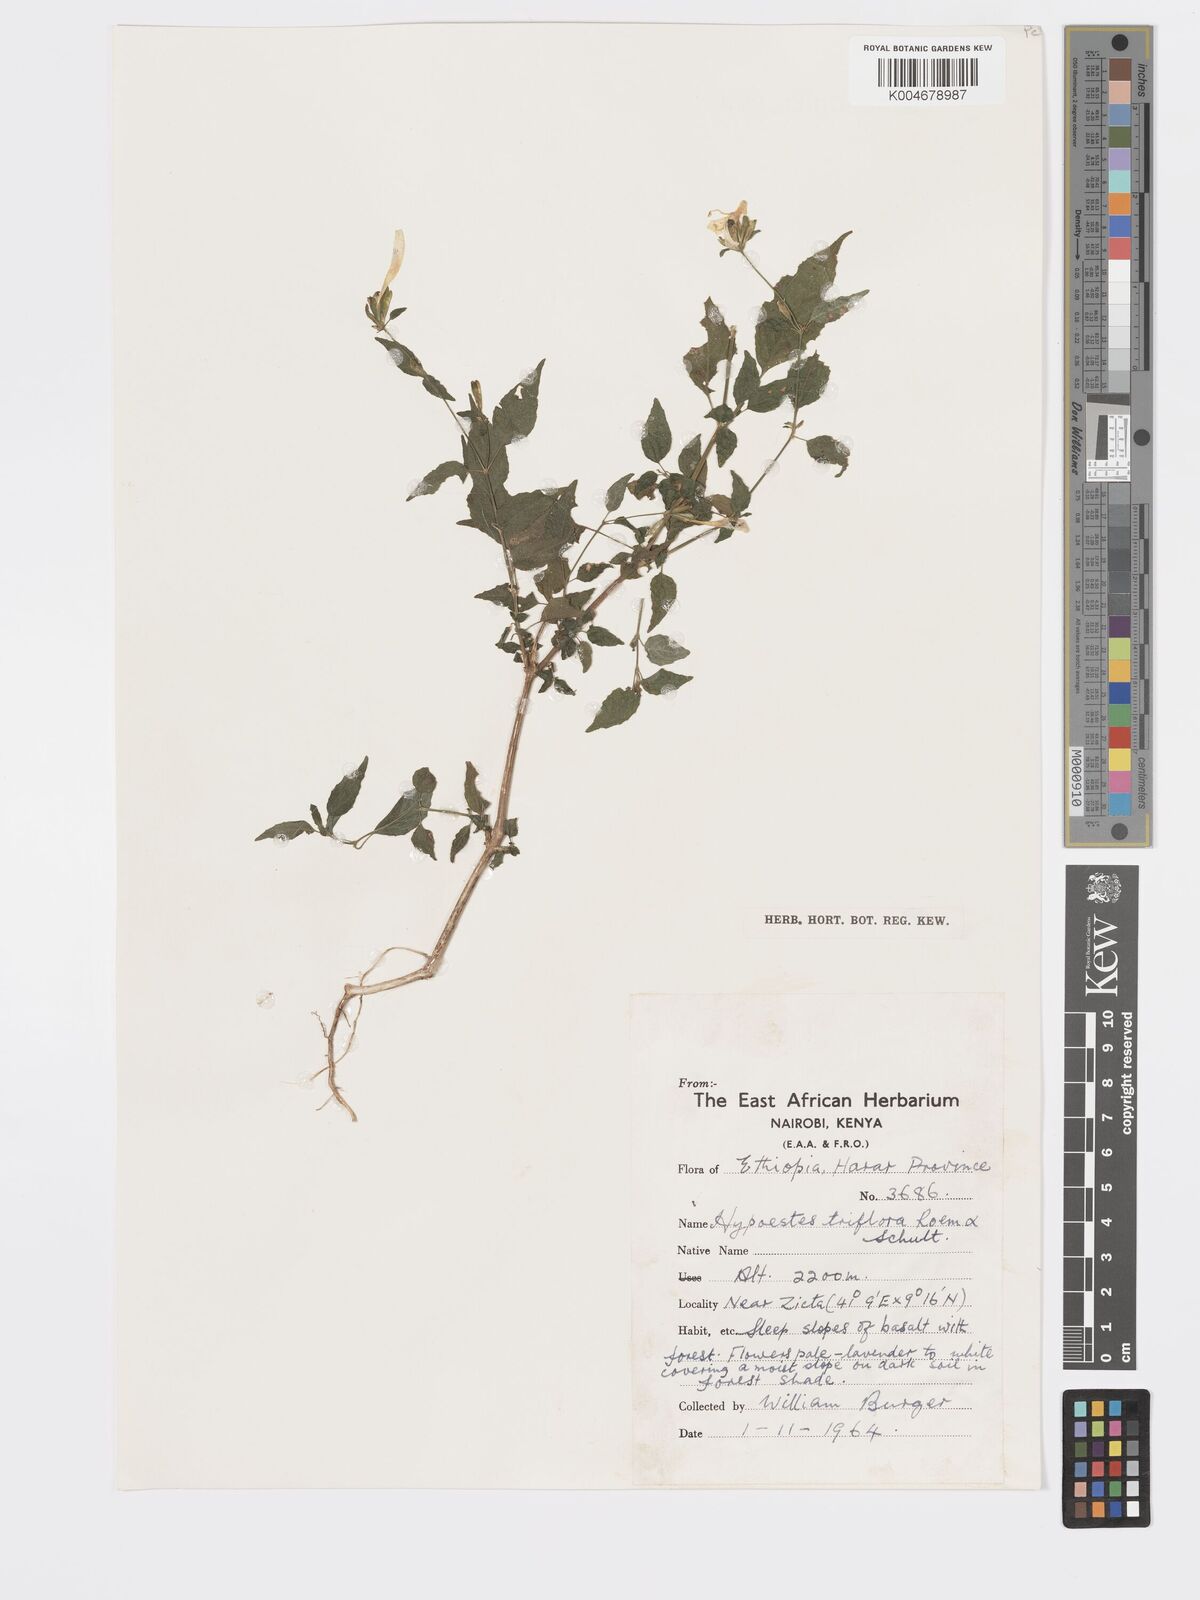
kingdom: Plantae
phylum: Tracheophyta
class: Magnoliopsida
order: Lamiales
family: Acanthaceae
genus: Hypoestes
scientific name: Hypoestes triflora
